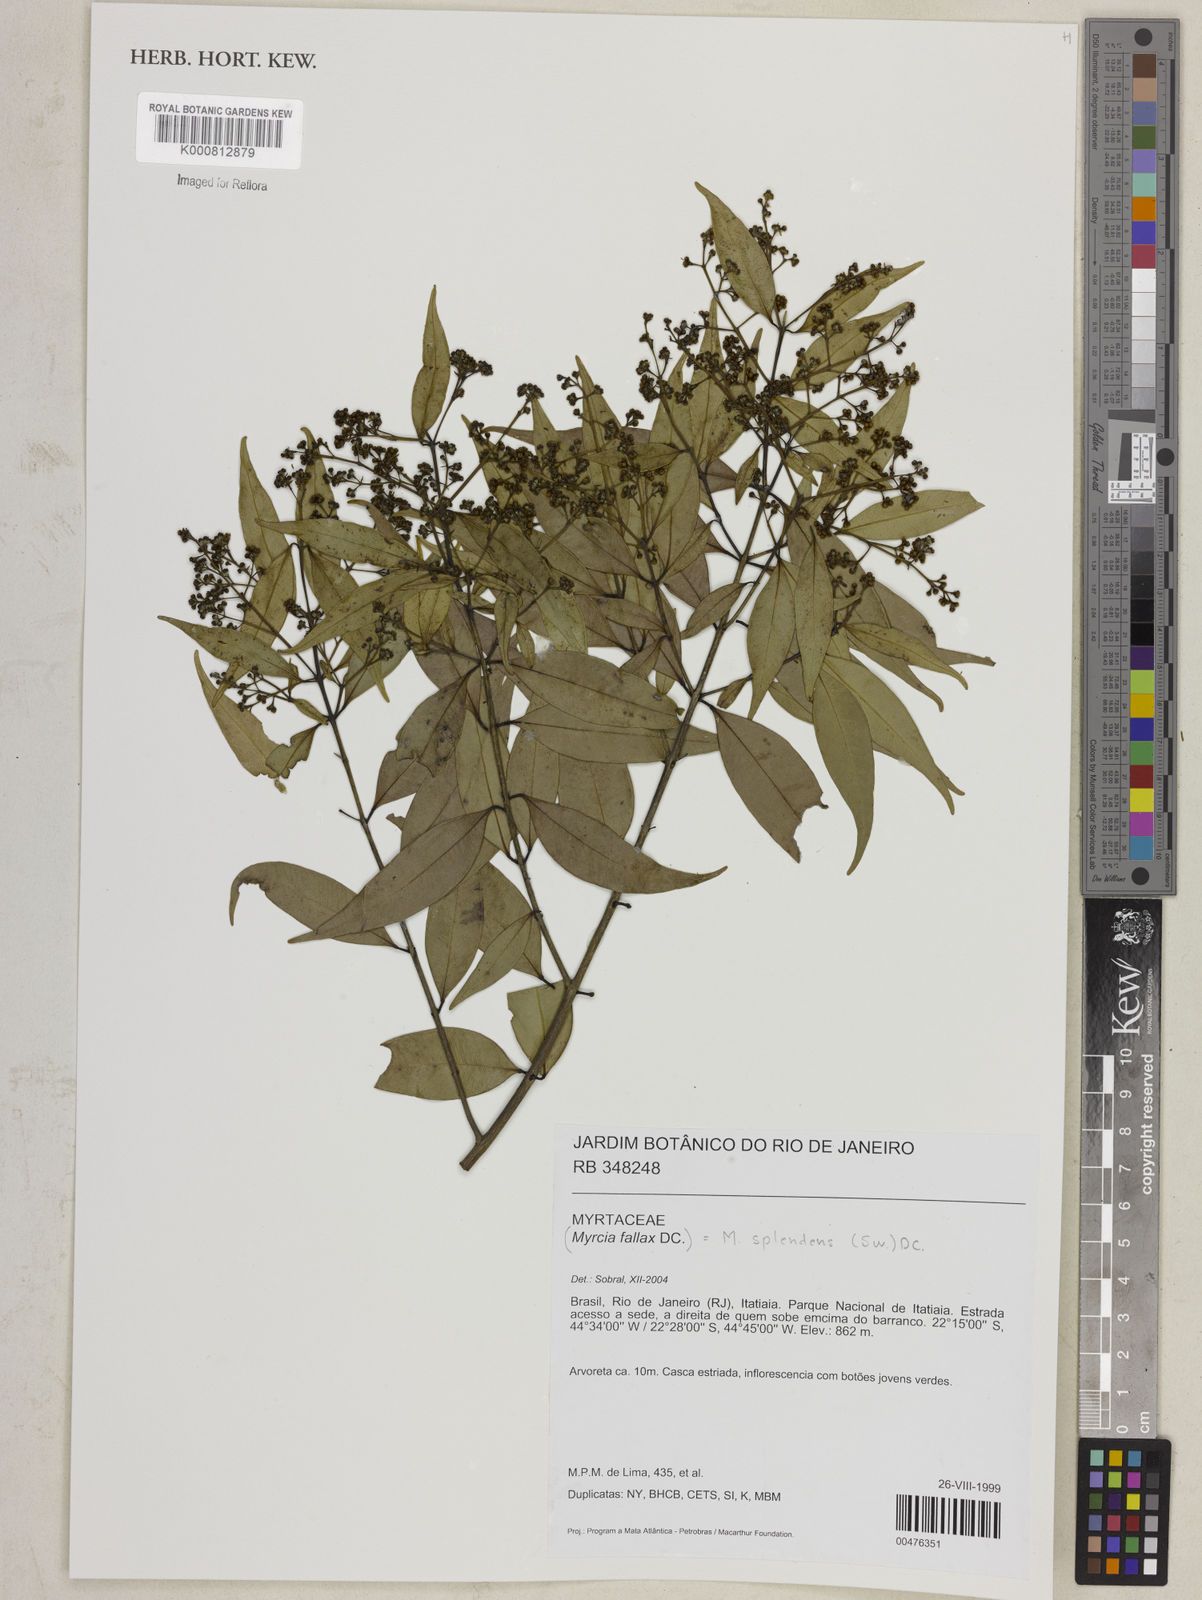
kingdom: Plantae
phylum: Tracheophyta
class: Magnoliopsida
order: Myrtales
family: Myrtaceae
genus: Myrcia
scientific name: Myrcia splendens
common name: Surinam cherry
